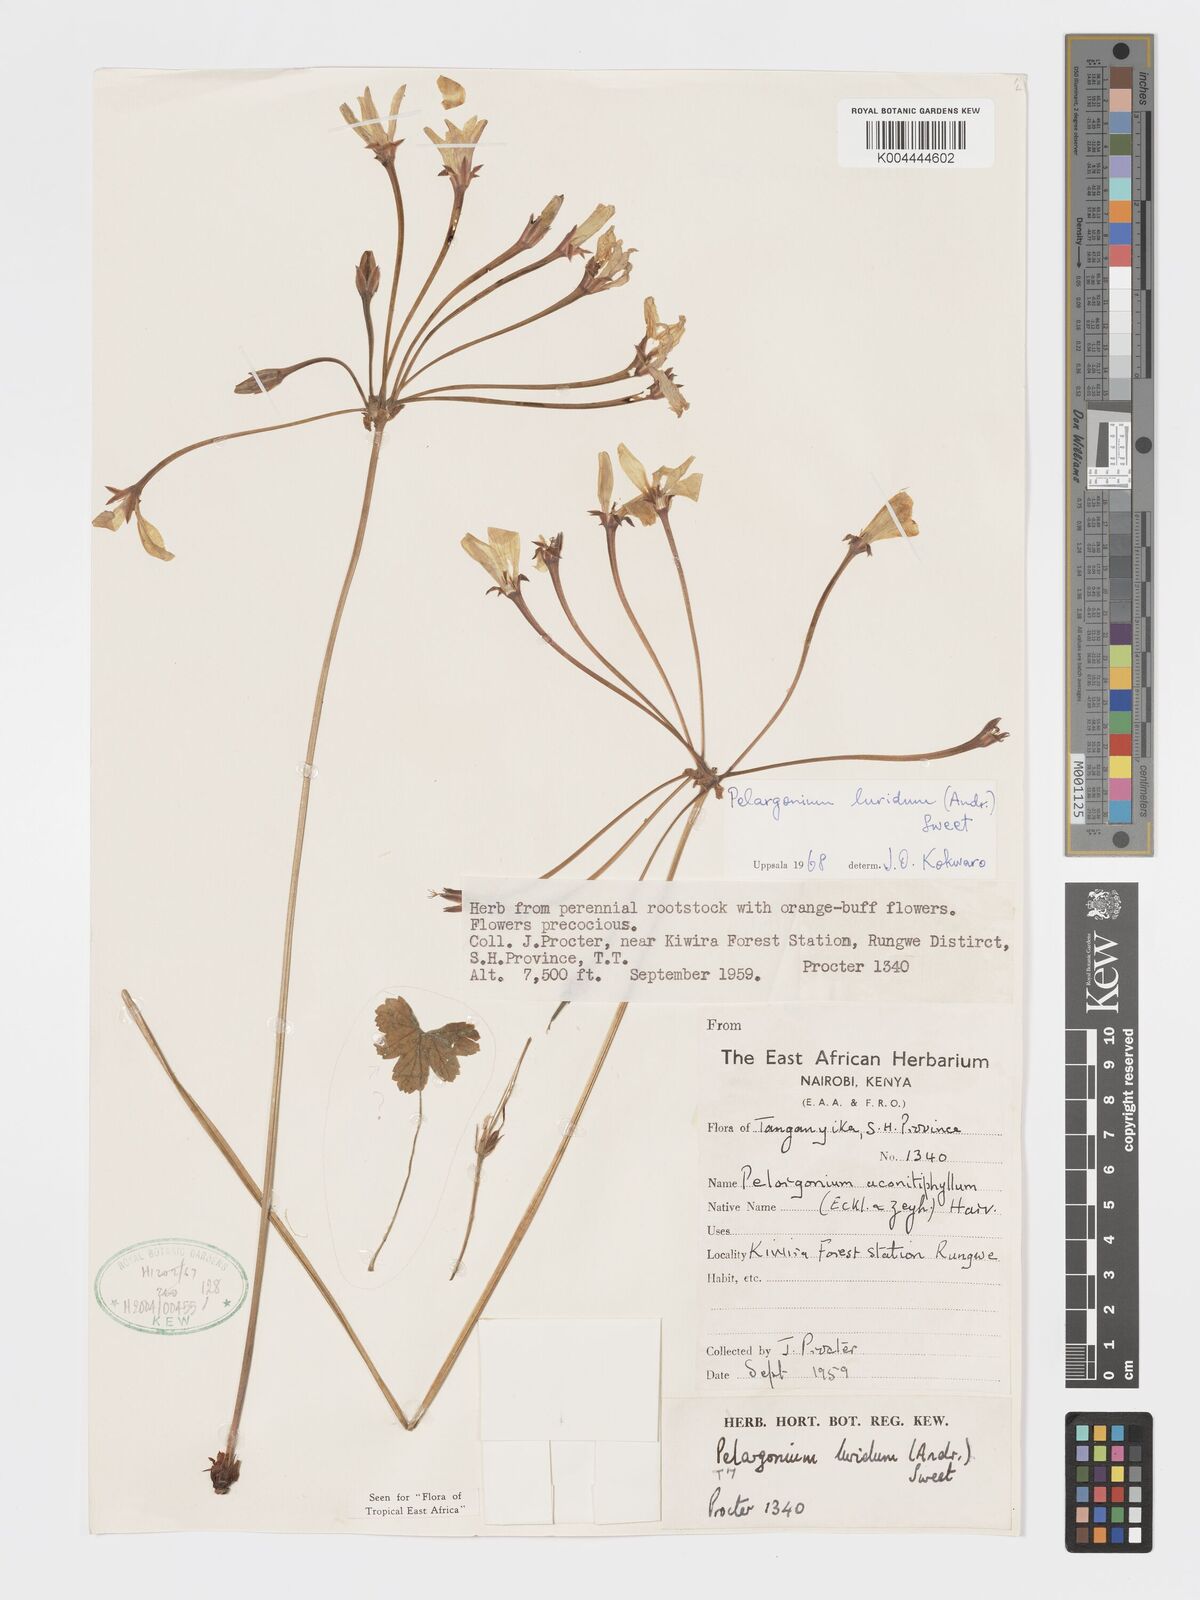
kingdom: Plantae
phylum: Tracheophyta
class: Magnoliopsida
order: Geraniales
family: Geraniaceae
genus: Pelargonium
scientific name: Pelargonium luridum
